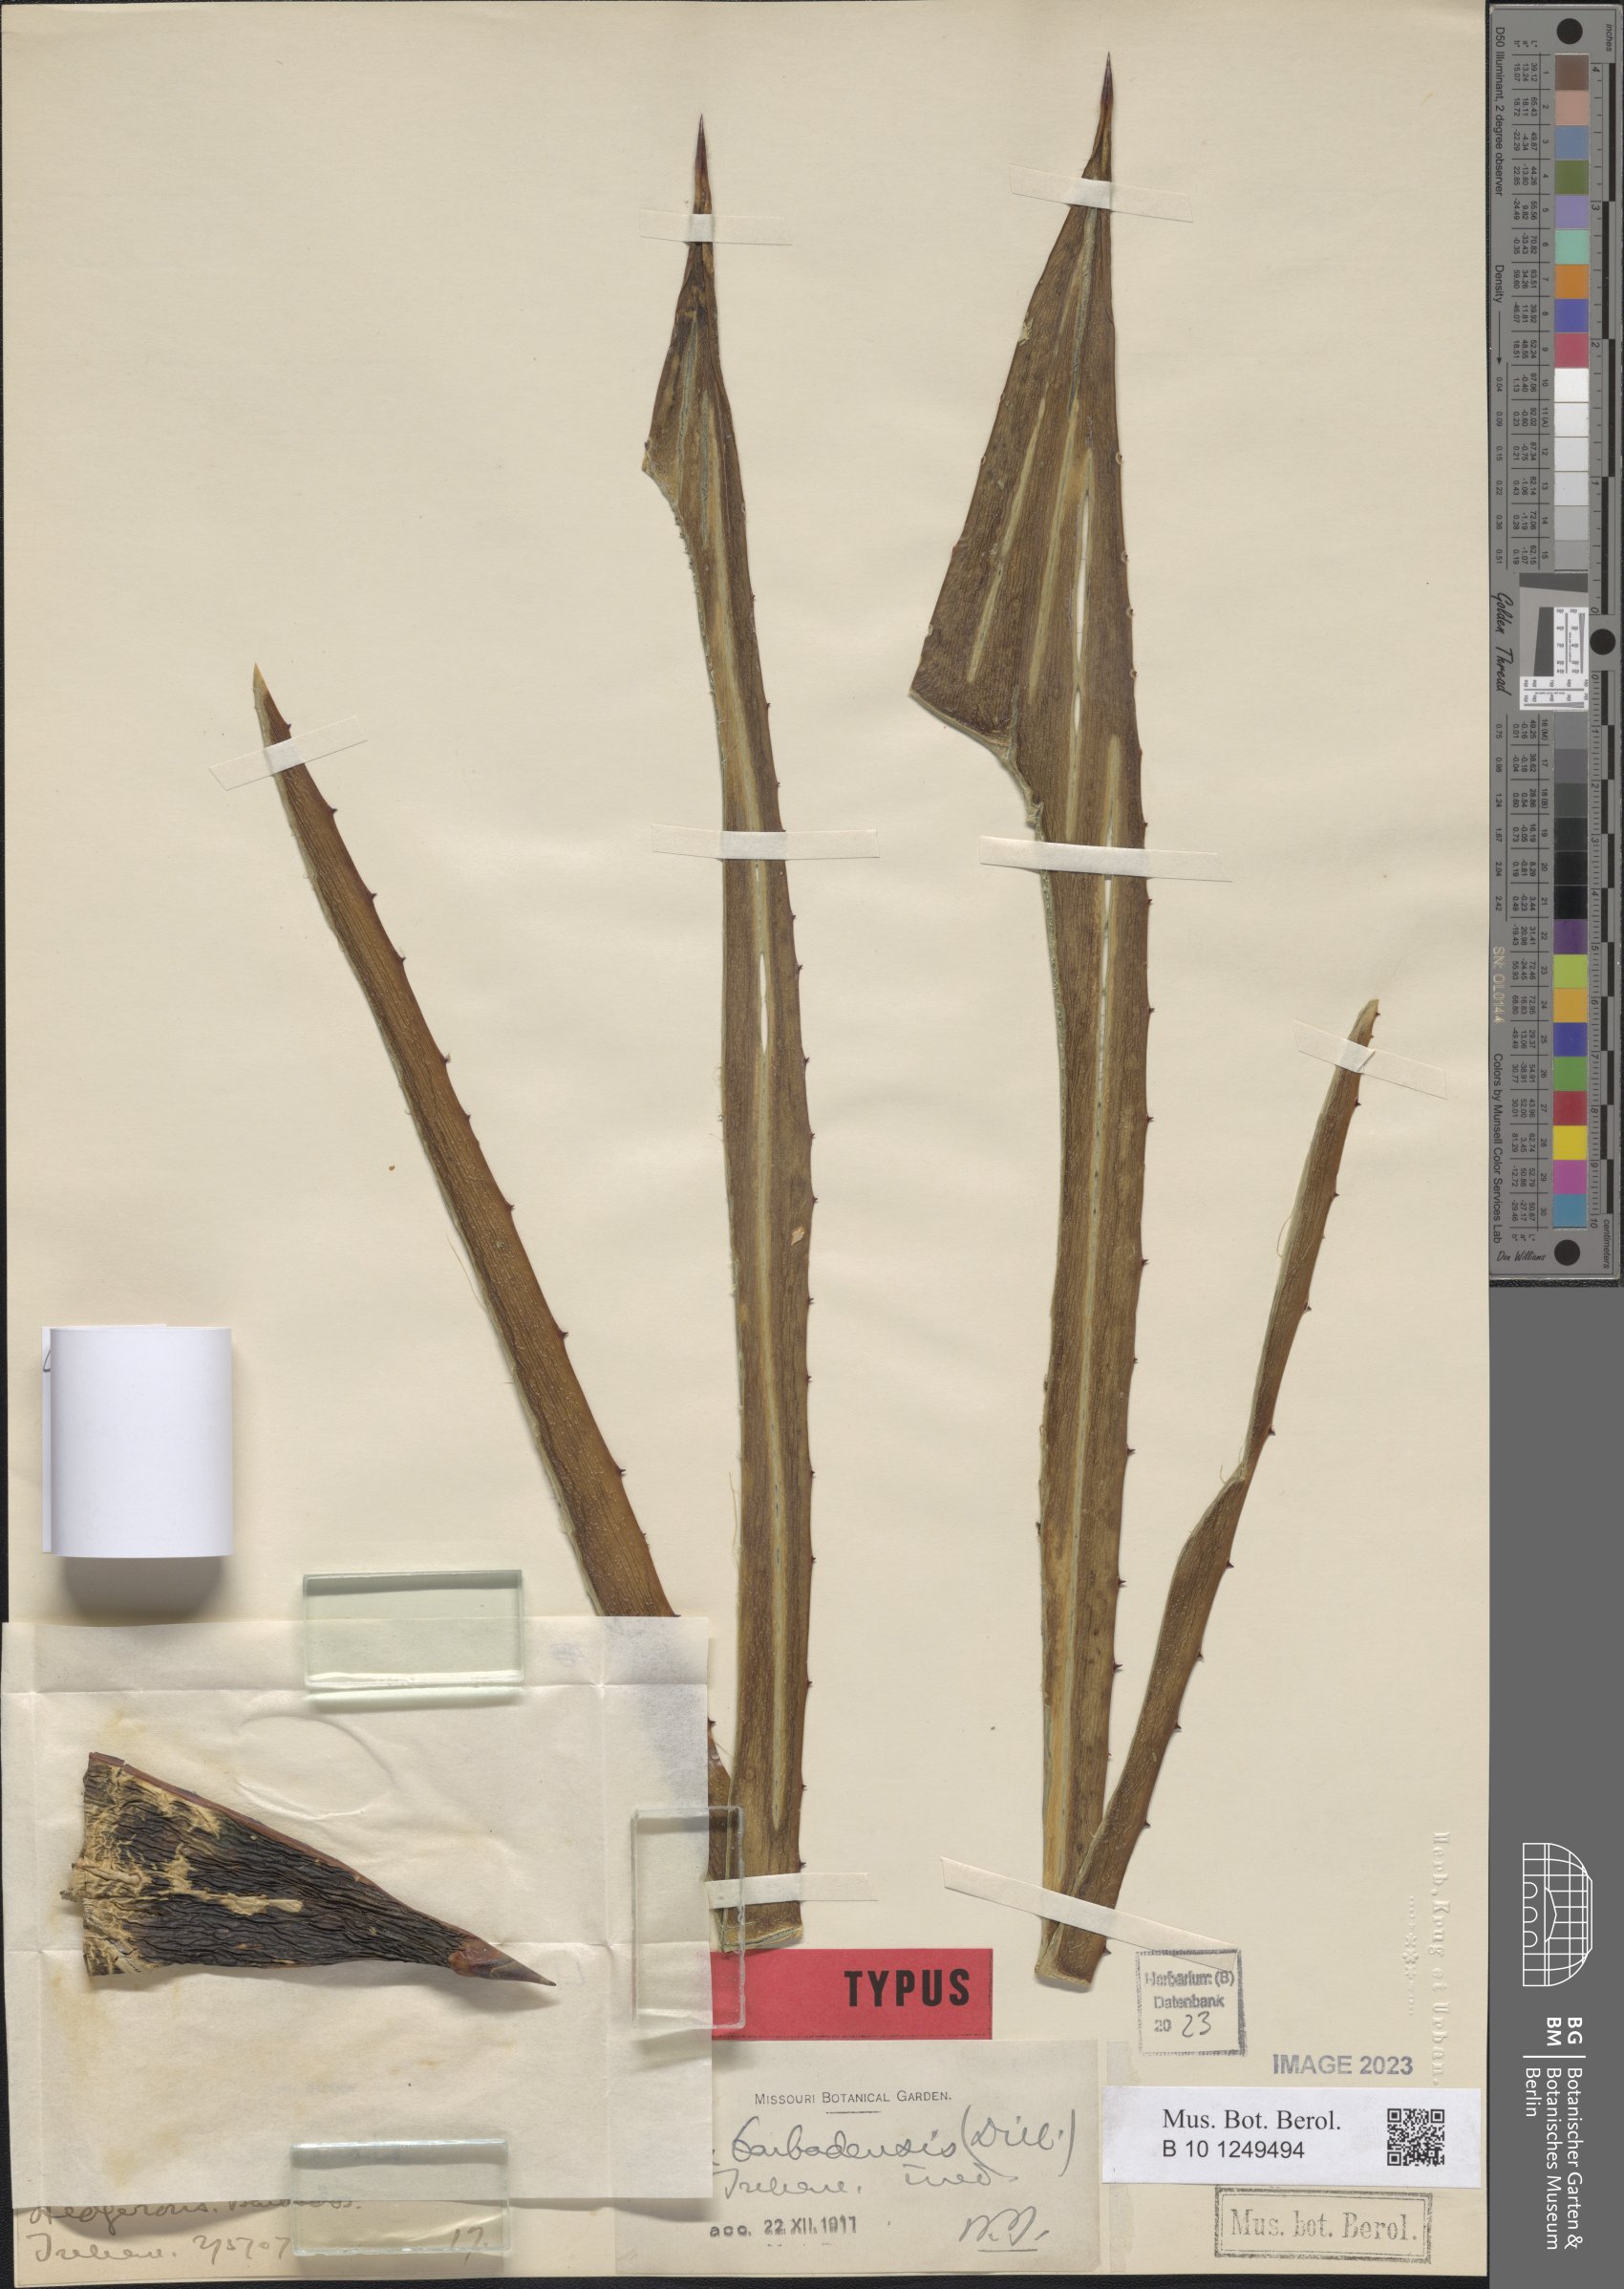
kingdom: Plantae
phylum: Tracheophyta
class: Liliopsida
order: Asparagales
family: Asparagaceae
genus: Agave
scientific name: Agave karatto
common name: Century plant
